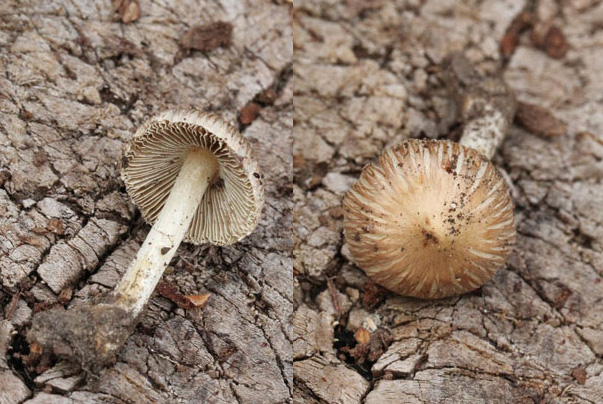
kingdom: Fungi
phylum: Basidiomycota
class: Agaricomycetes
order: Agaricales
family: Inocybaceae
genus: Pseudosperma
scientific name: Pseudosperma rimosum
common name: gulbladet trævlhat
